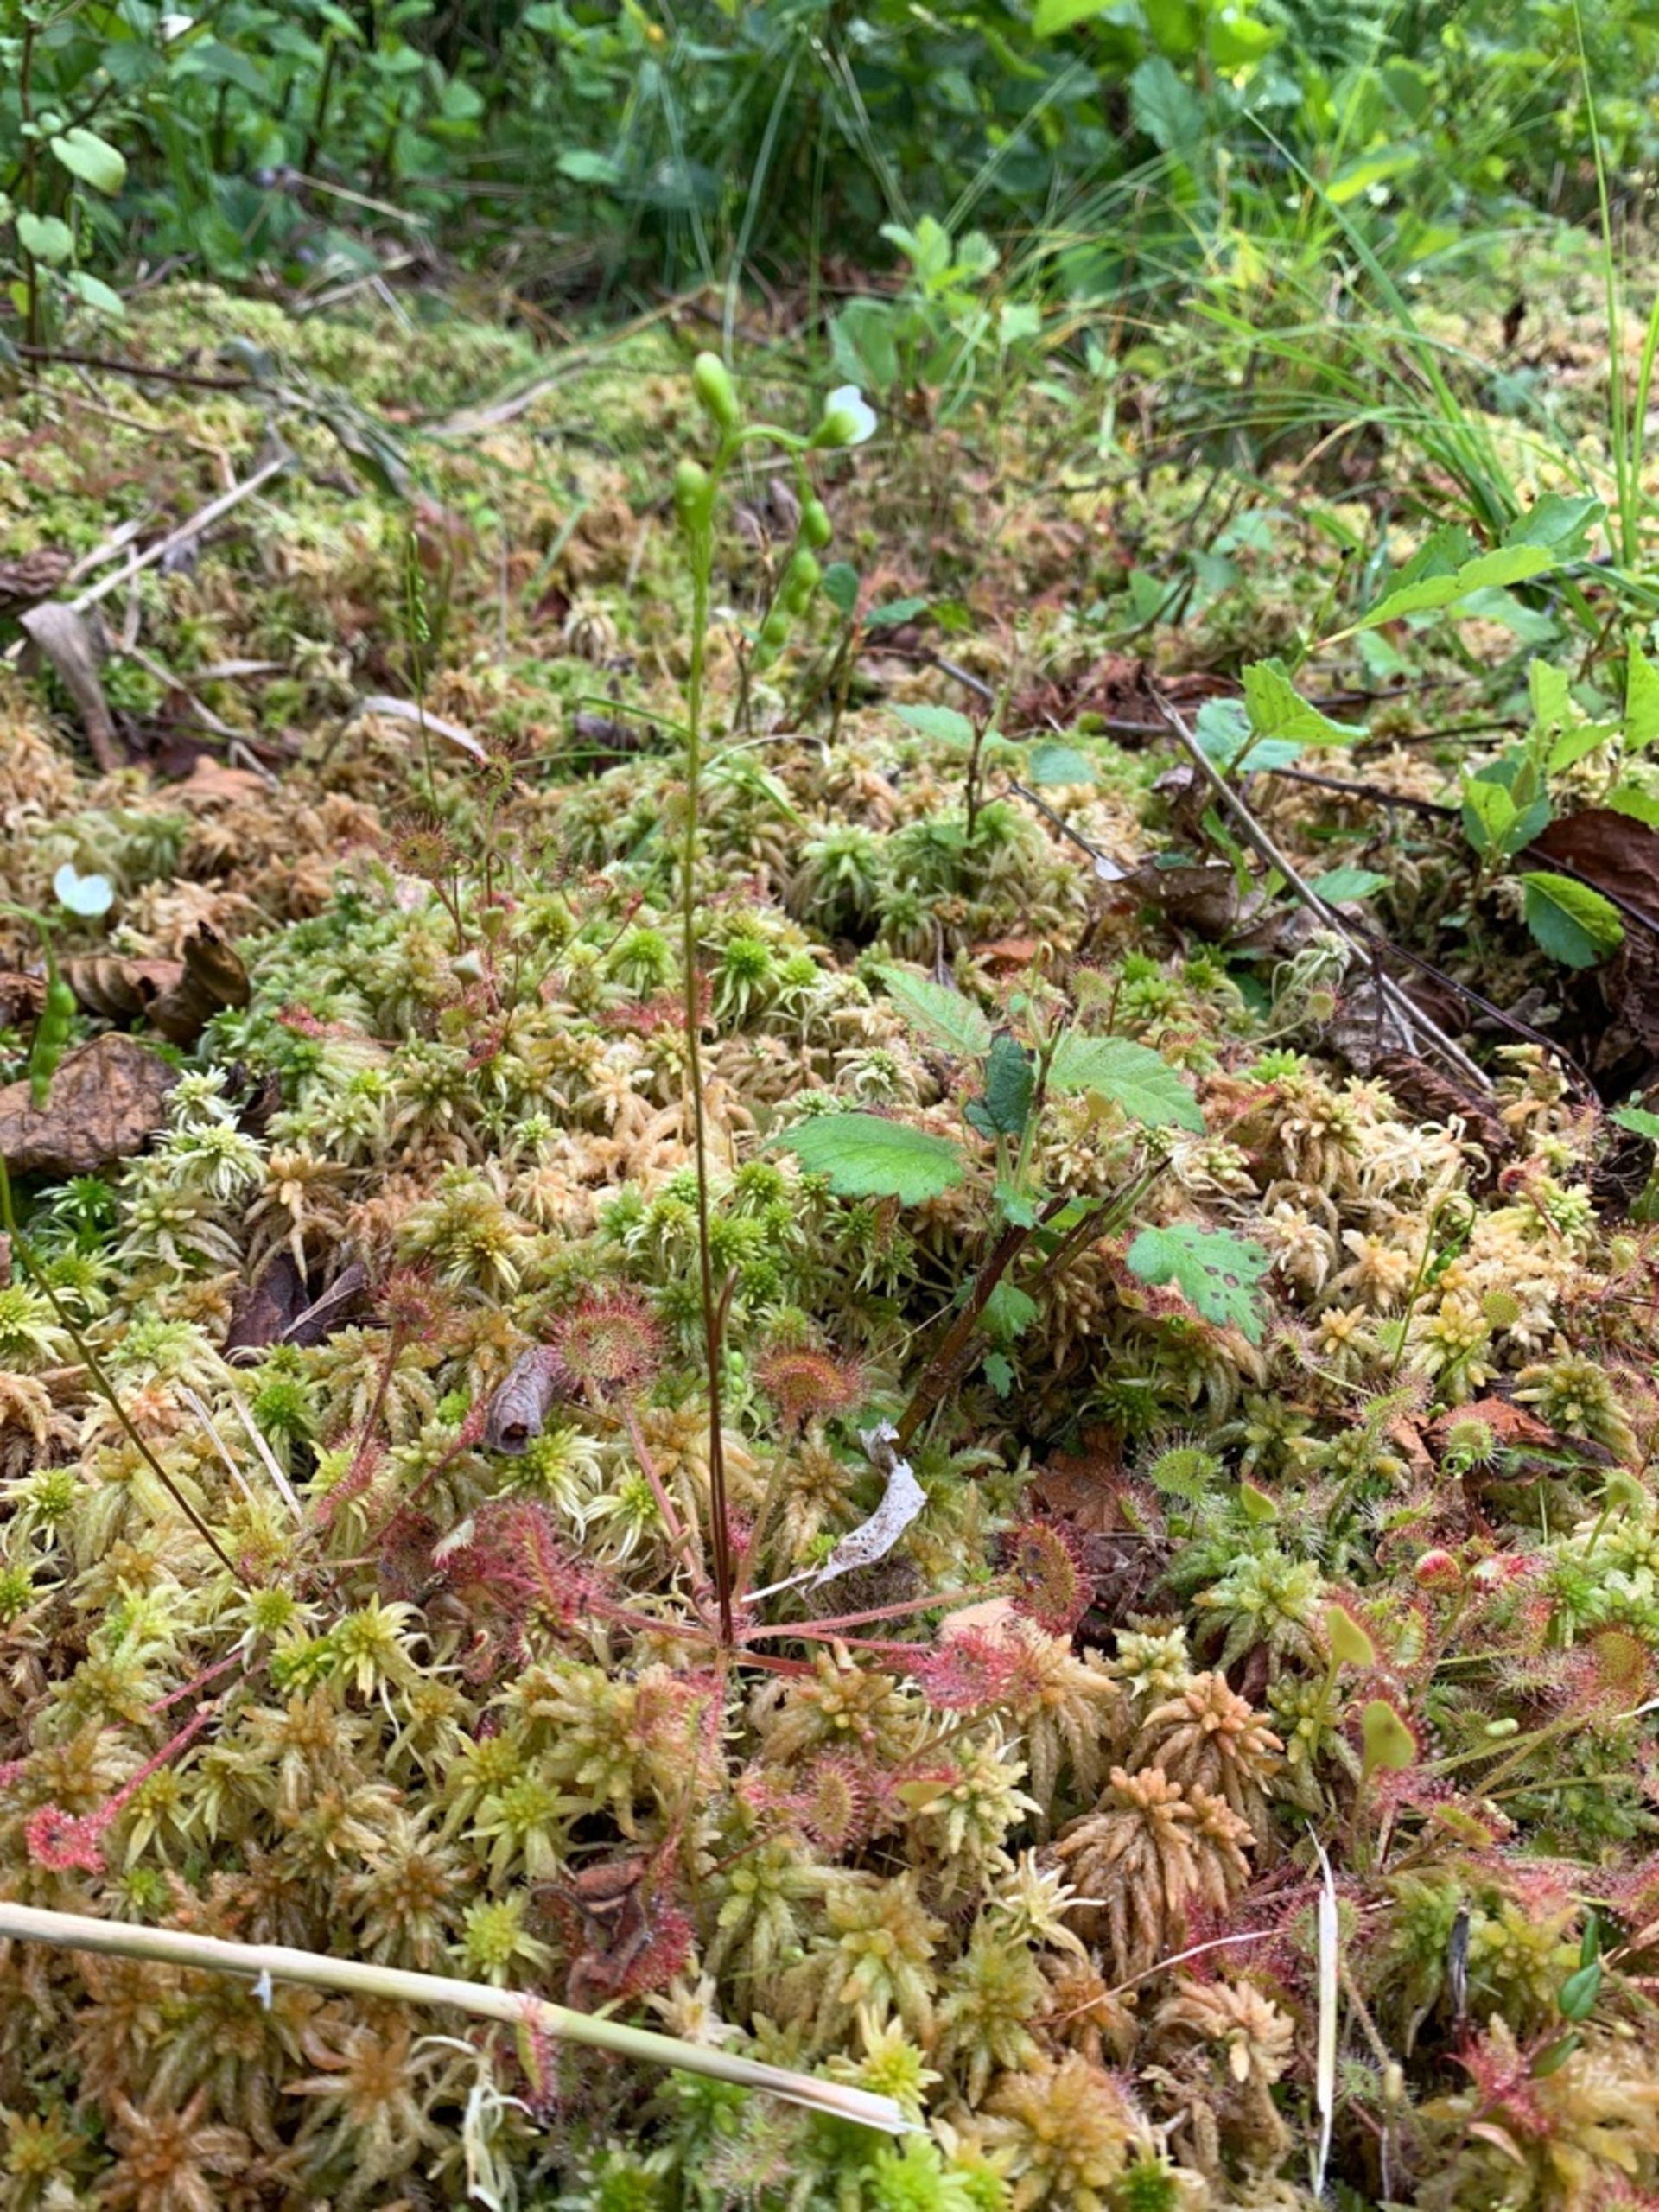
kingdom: Plantae
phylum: Tracheophyta
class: Magnoliopsida
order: Caryophyllales
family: Droseraceae
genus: Drosera
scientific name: Drosera rotundifolia
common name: Rundbladet soldug
